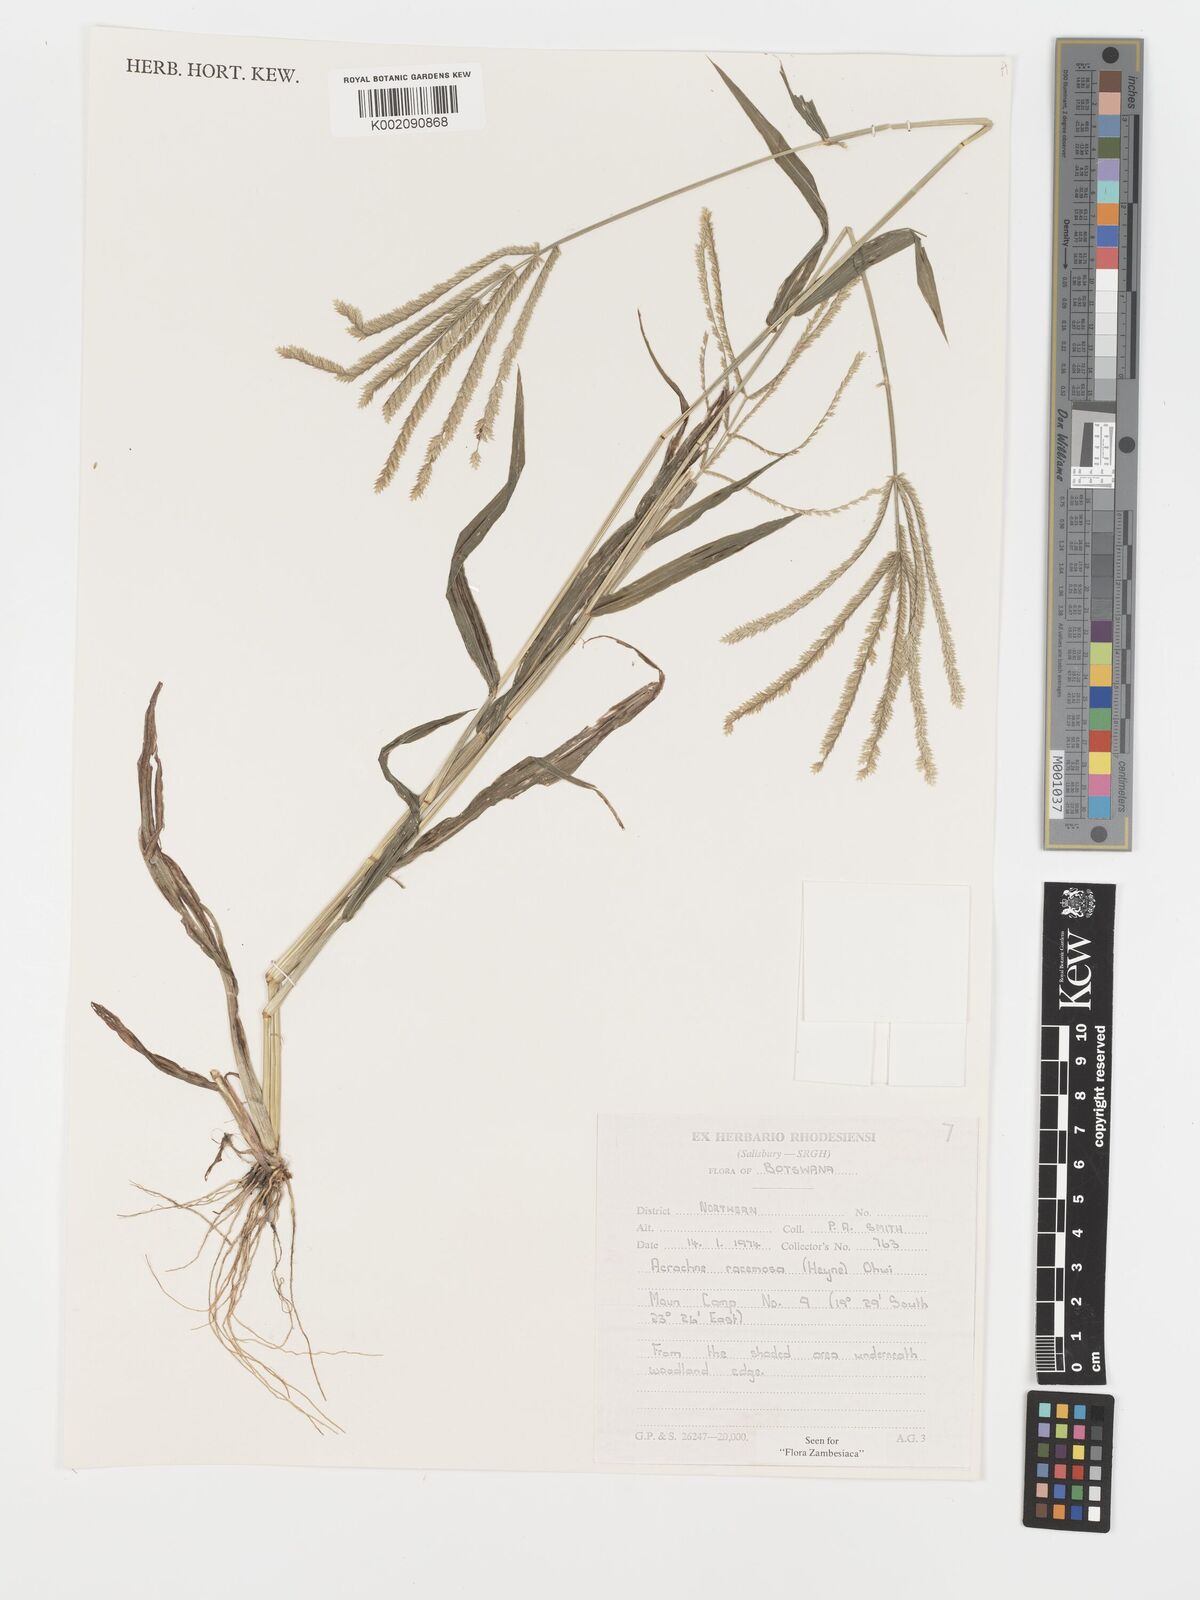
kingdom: Plantae
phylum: Tracheophyta
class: Liliopsida
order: Poales
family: Poaceae
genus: Acrachne
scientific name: Acrachne racemosa
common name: Goosegrass
